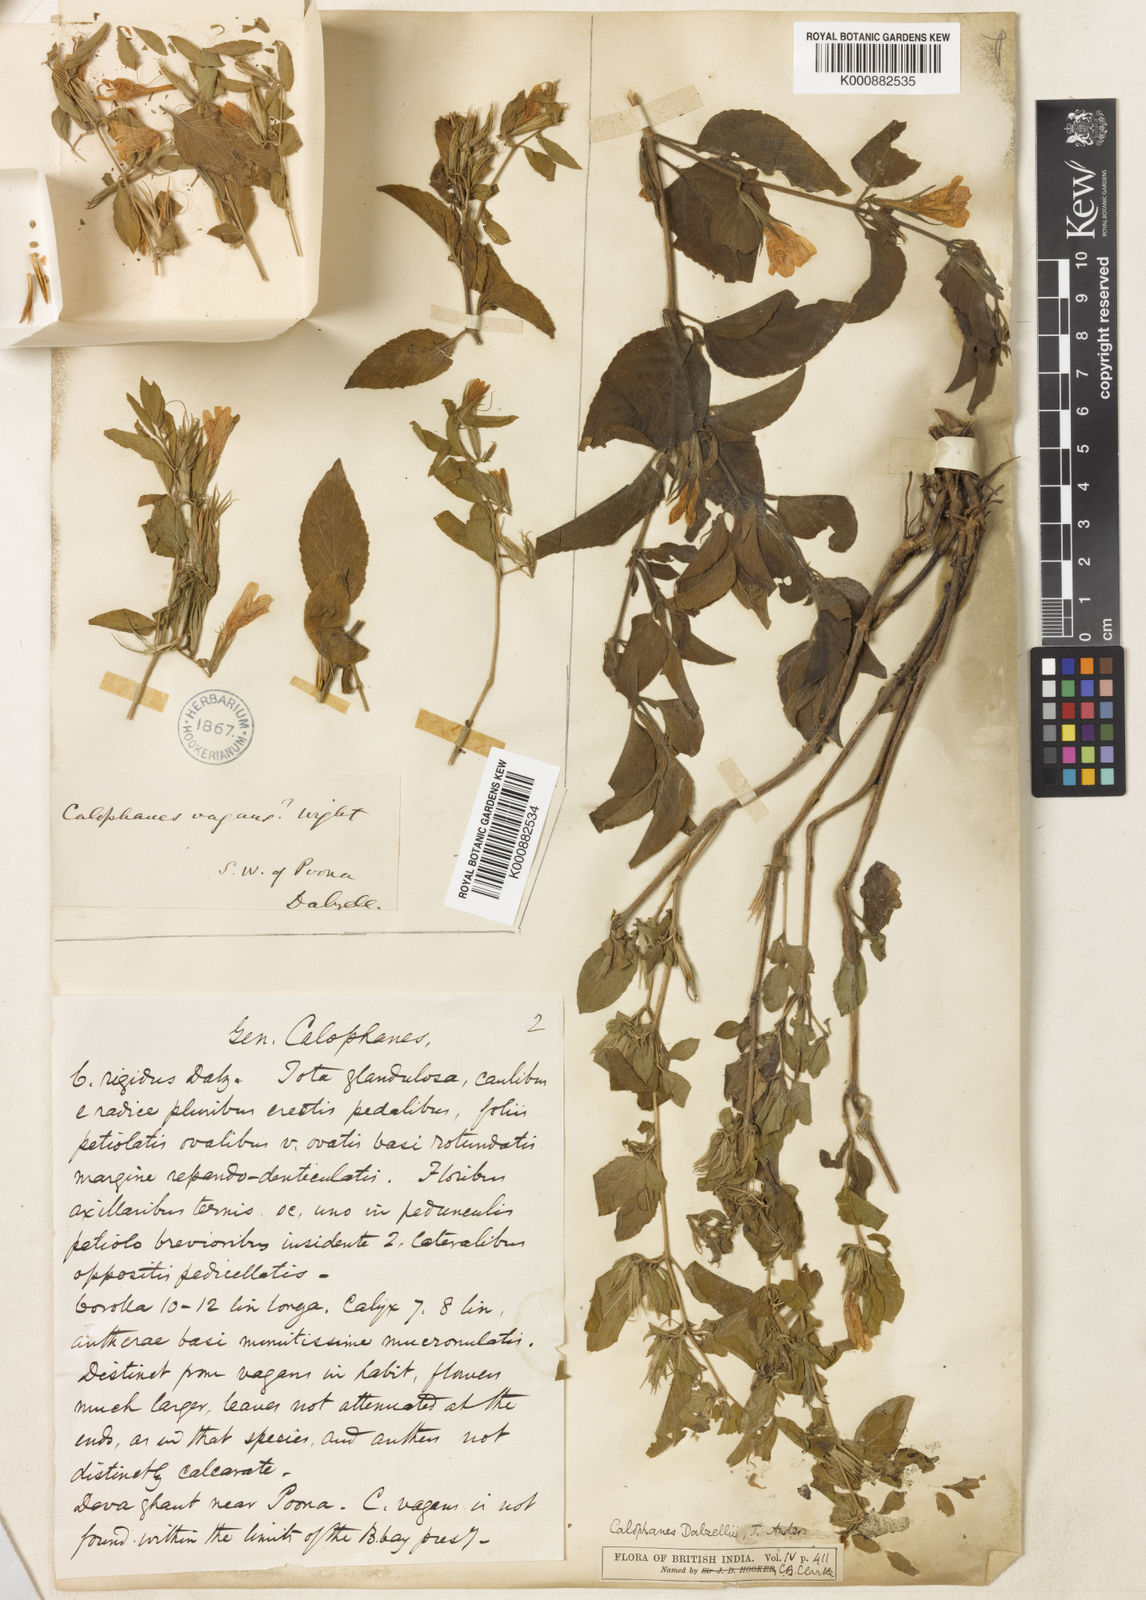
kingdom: Plantae
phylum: Tracheophyta
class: Magnoliopsida
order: Lamiales
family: Acanthaceae
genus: Dyschoriste
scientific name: Dyschoriste
